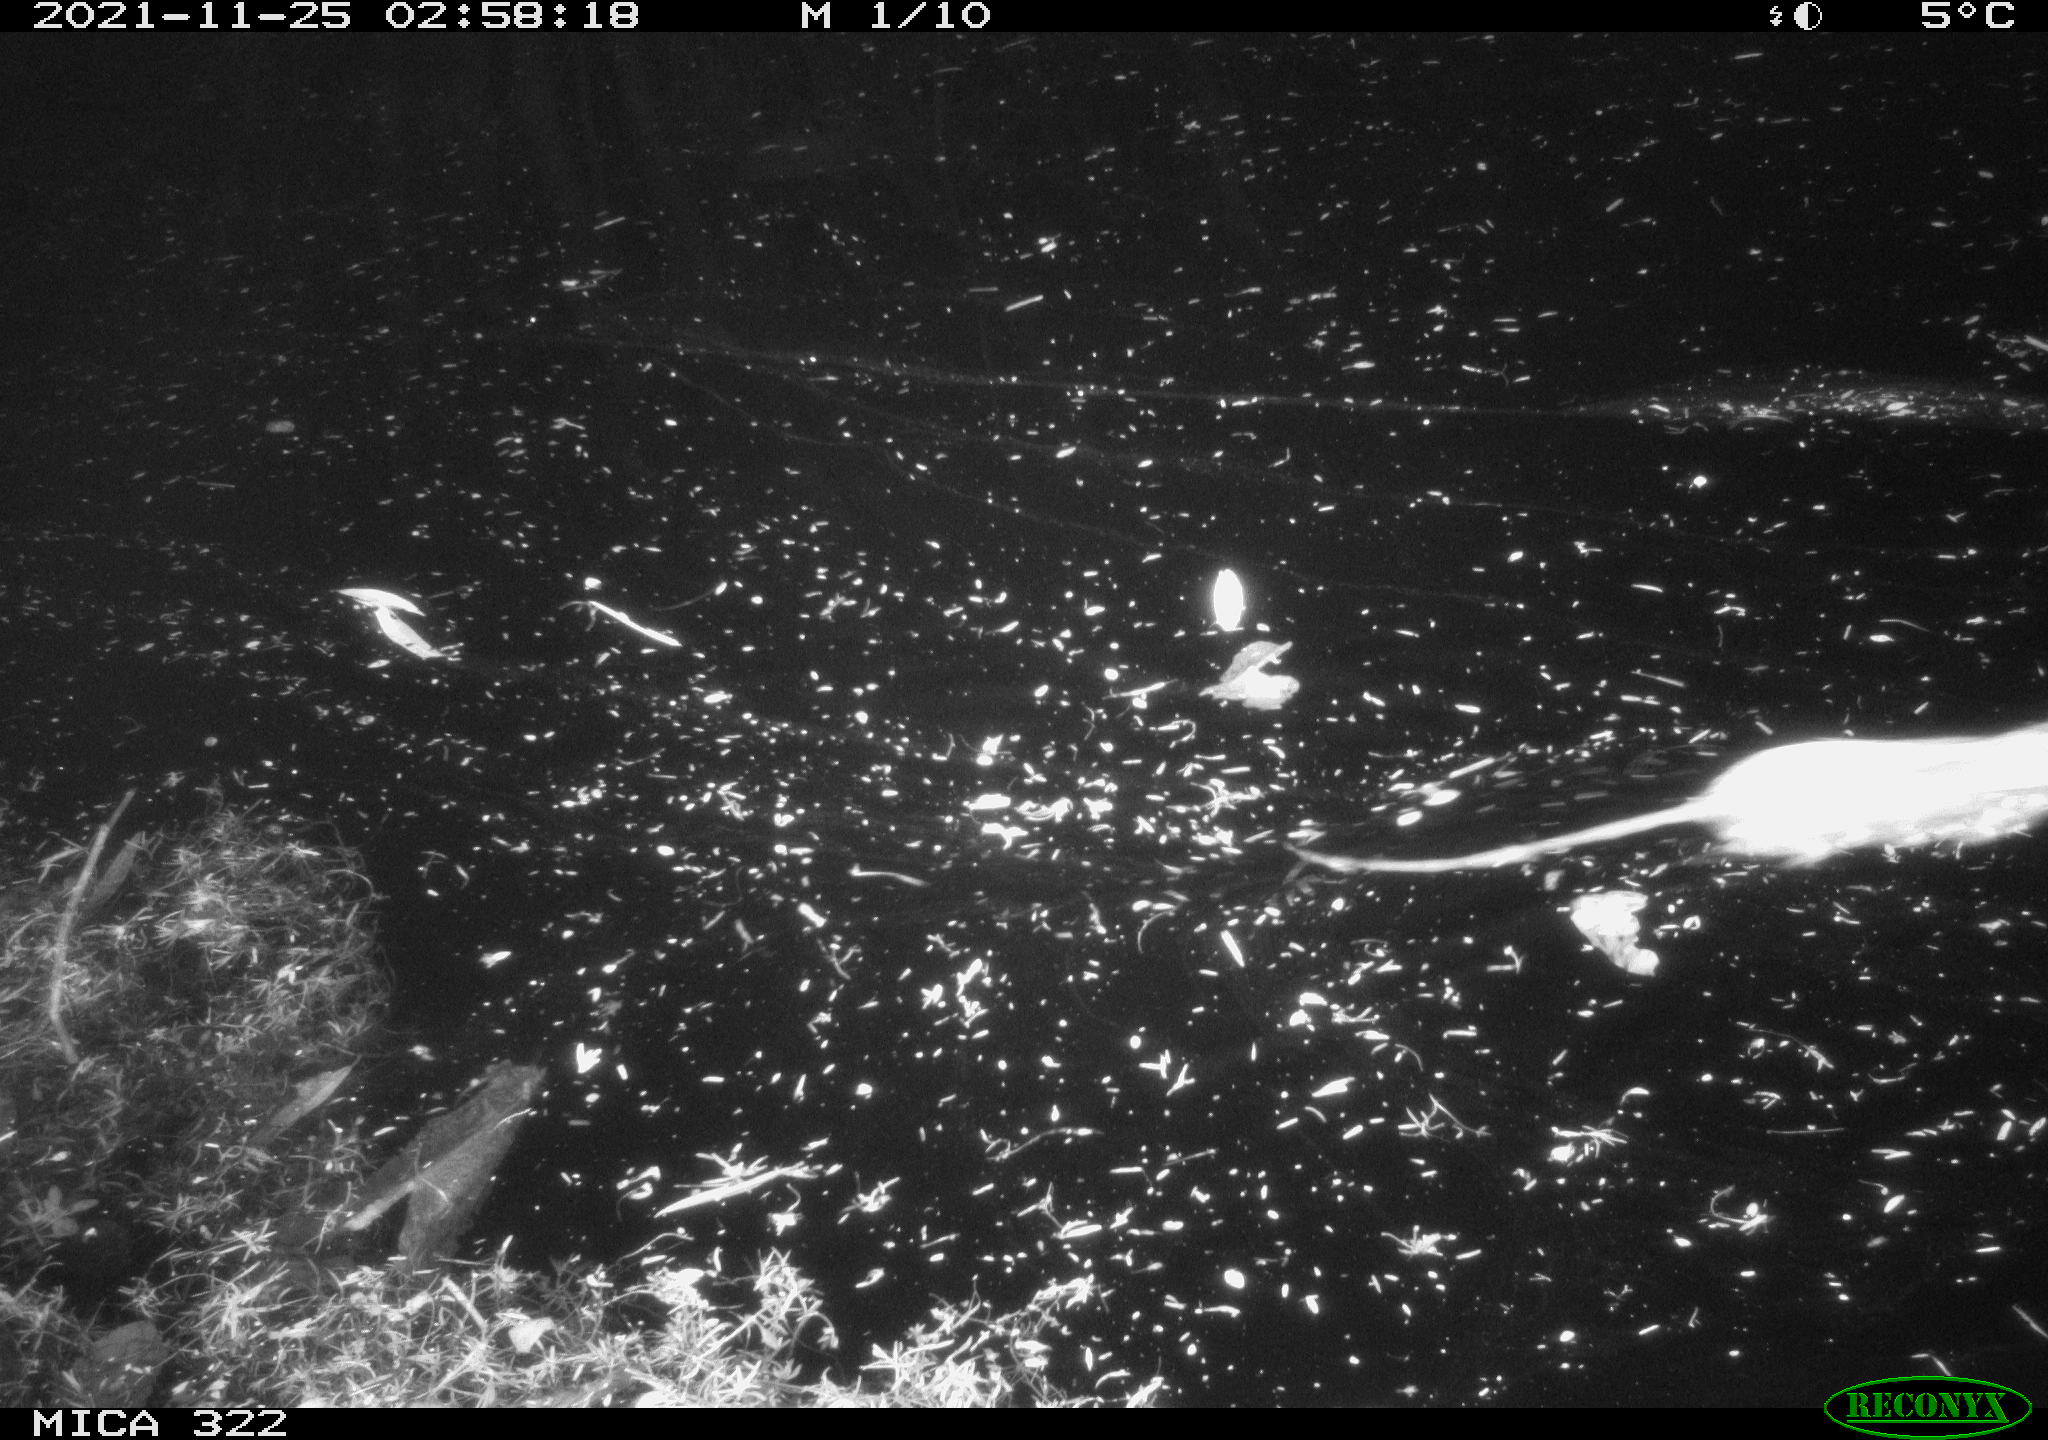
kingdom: Animalia
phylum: Chordata
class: Mammalia
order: Rodentia
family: Muridae
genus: Rattus
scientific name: Rattus norvegicus
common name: Brown rat
